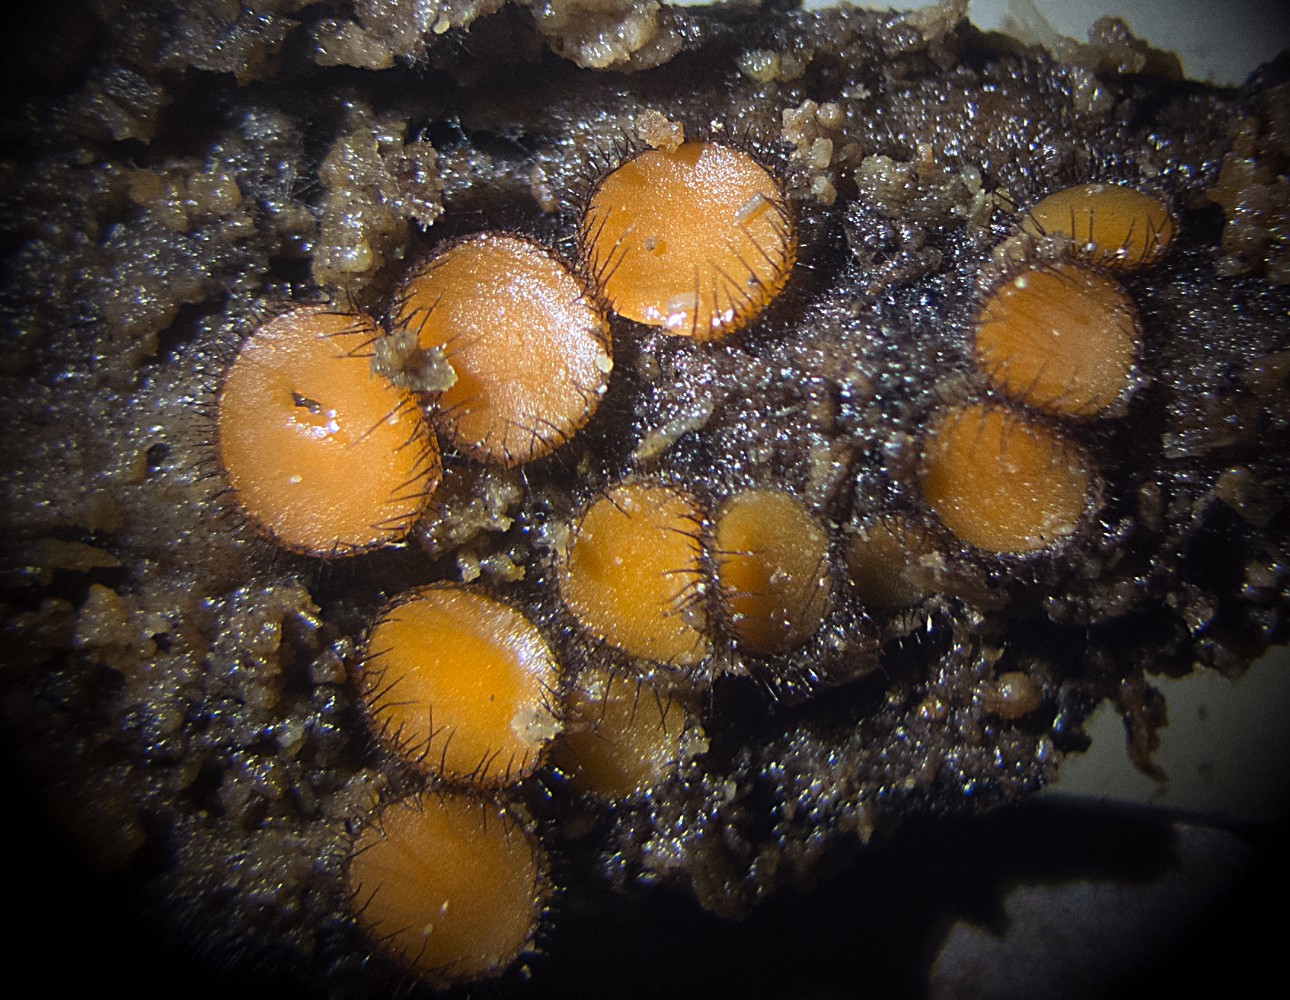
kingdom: Fungi
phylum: Ascomycota
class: Pezizomycetes
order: Pezizales
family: Pyronemataceae
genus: Scutellinia
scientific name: Scutellinia
